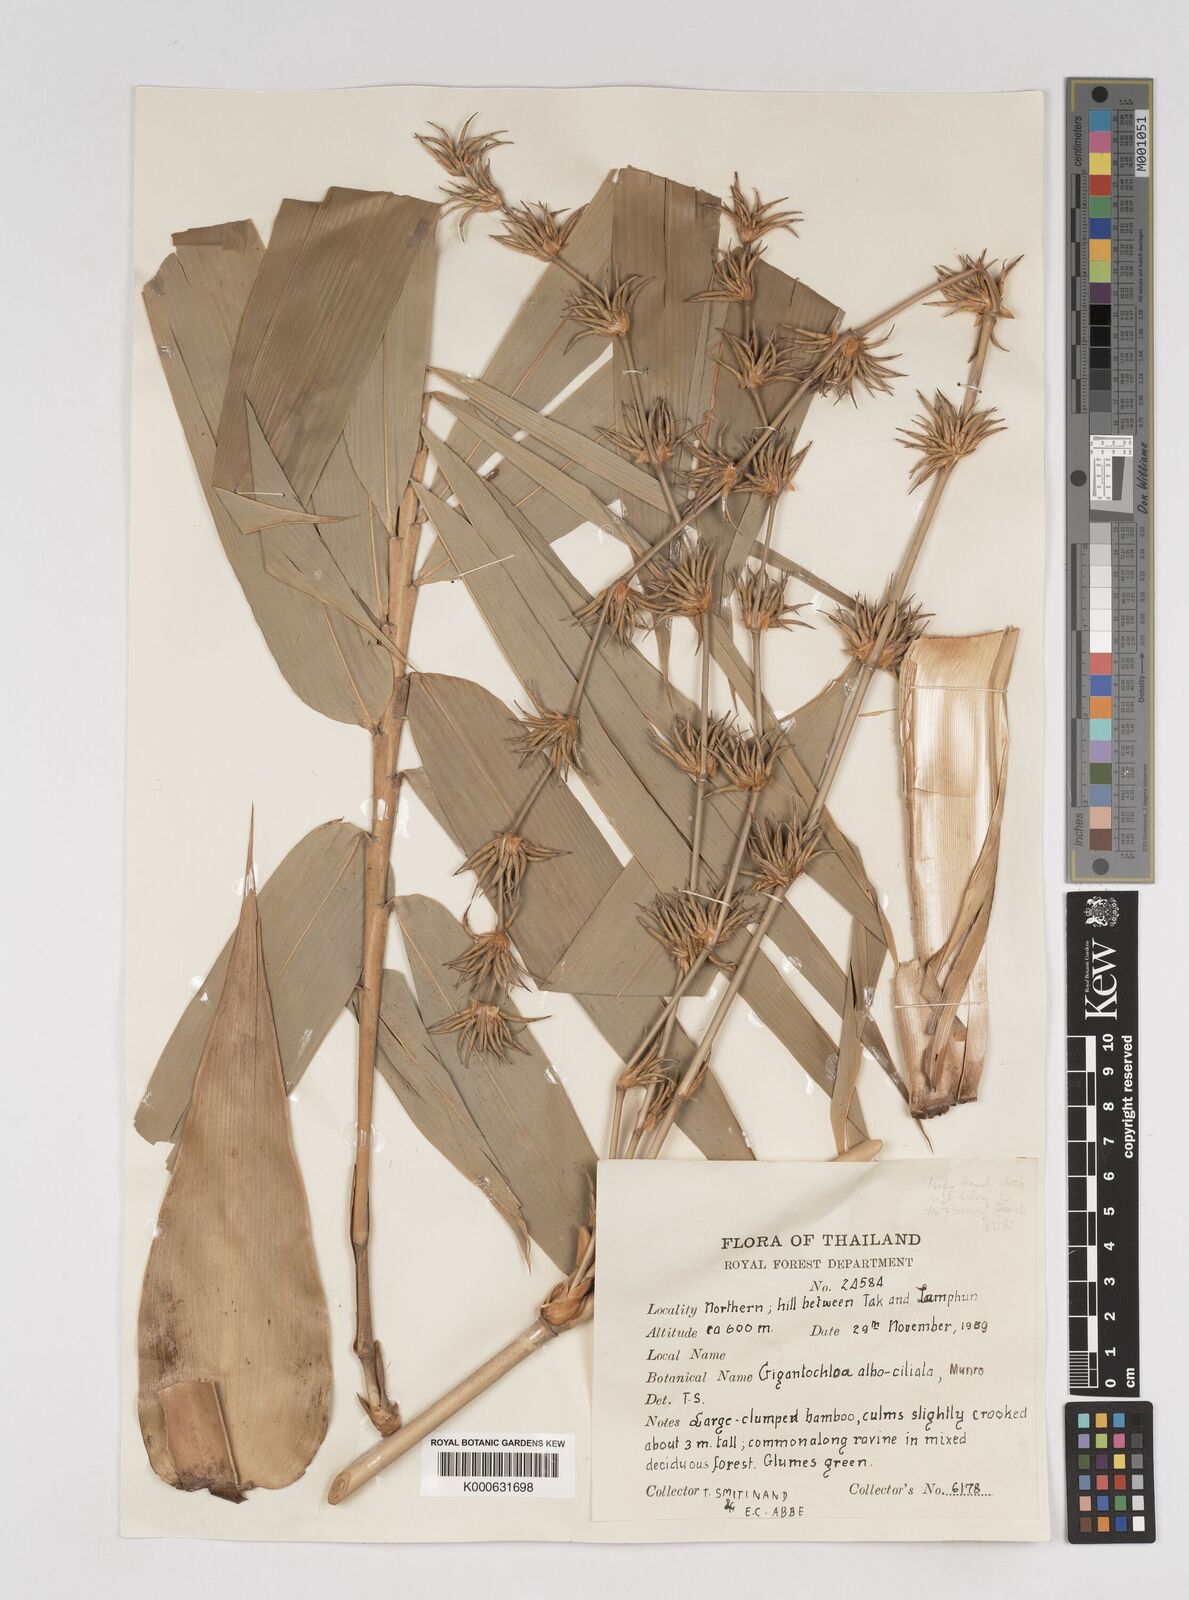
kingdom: Plantae
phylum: Tracheophyta
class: Liliopsida
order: Poales
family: Poaceae
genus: Gigantochloa
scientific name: Gigantochloa albociliata
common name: White-fringe gigantochloa
